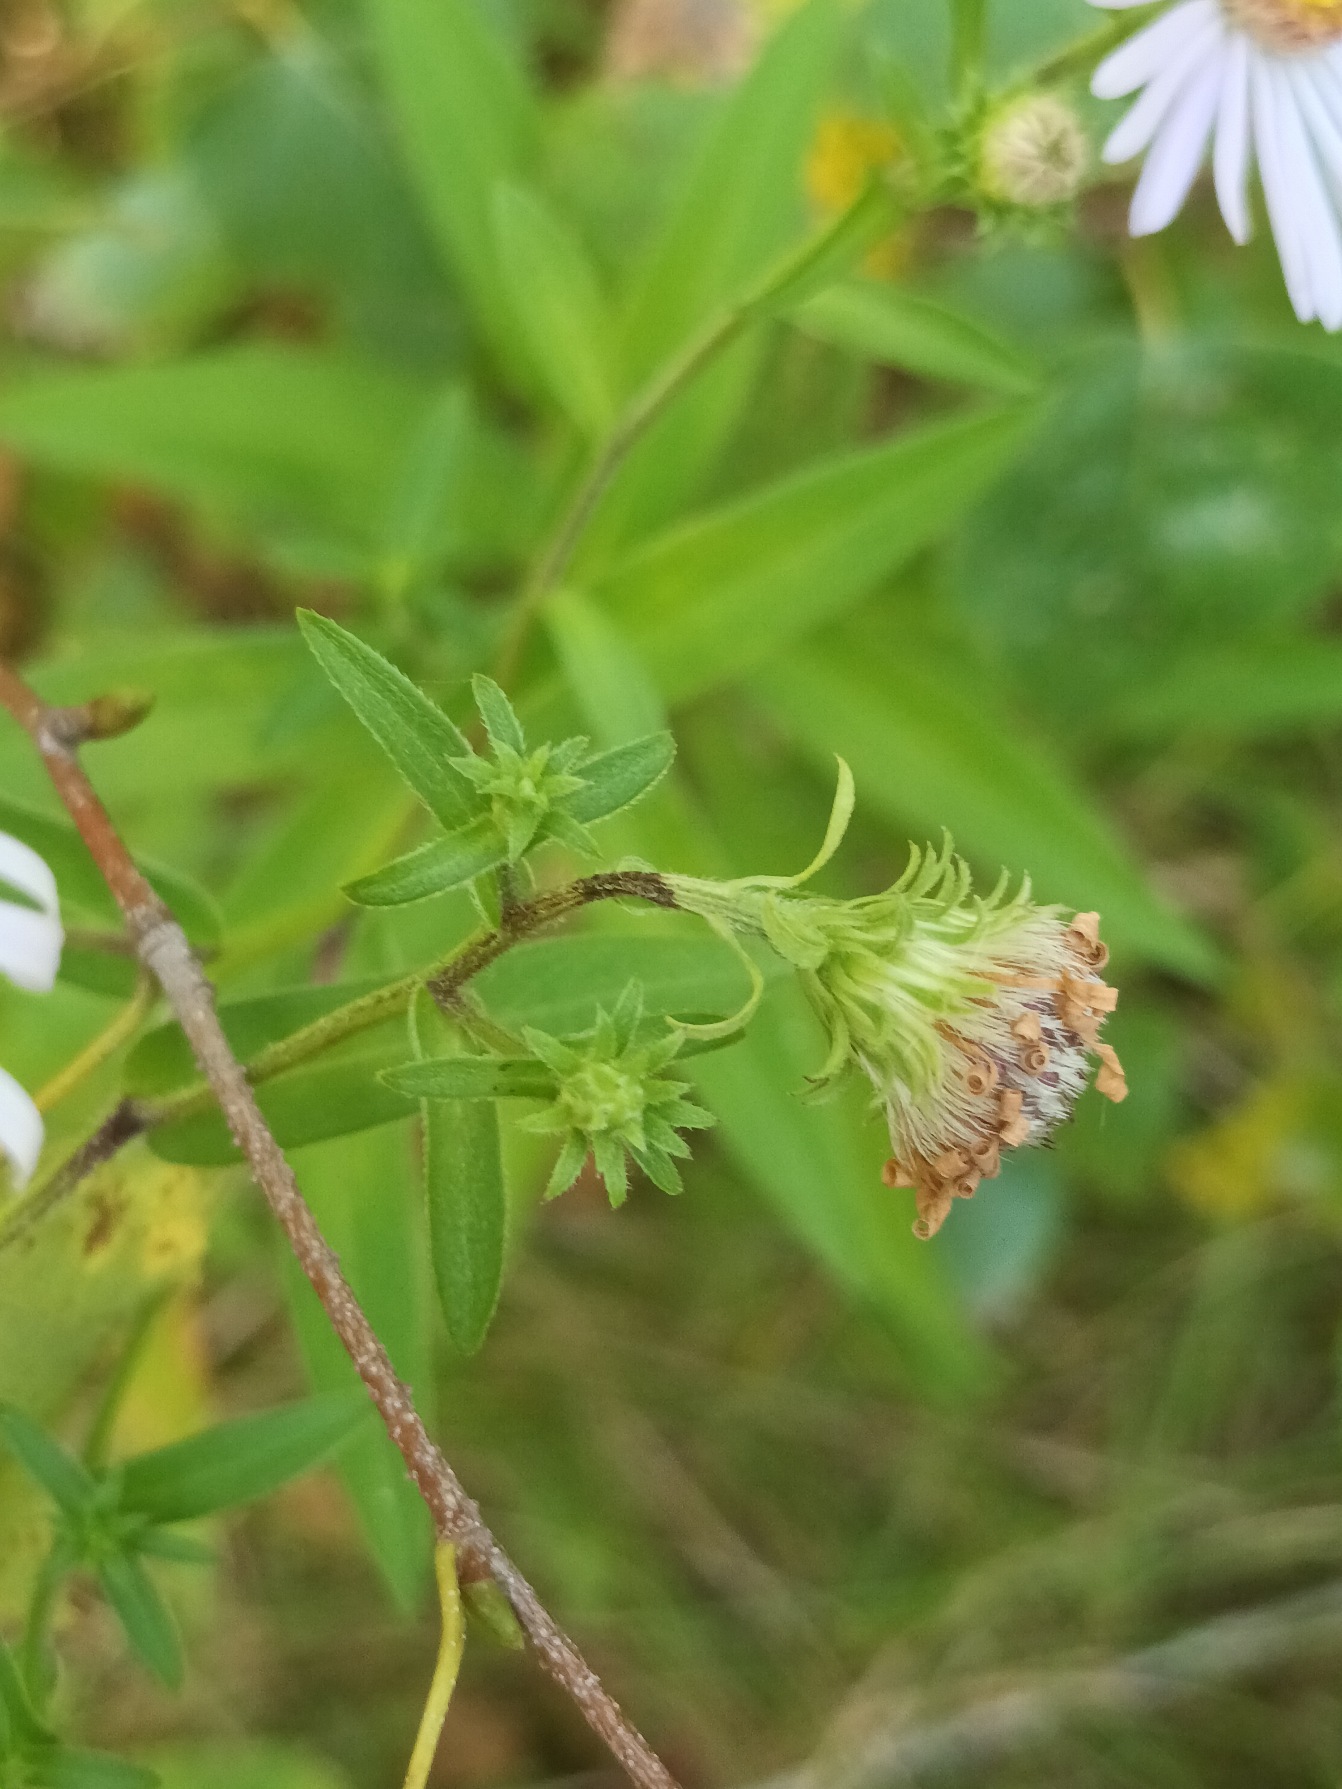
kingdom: Plantae
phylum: Tracheophyta
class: Magnoliopsida
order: Asterales
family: Asteraceae
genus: Symphyotrichum
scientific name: Symphyotrichum versicolor
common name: Broget asters
